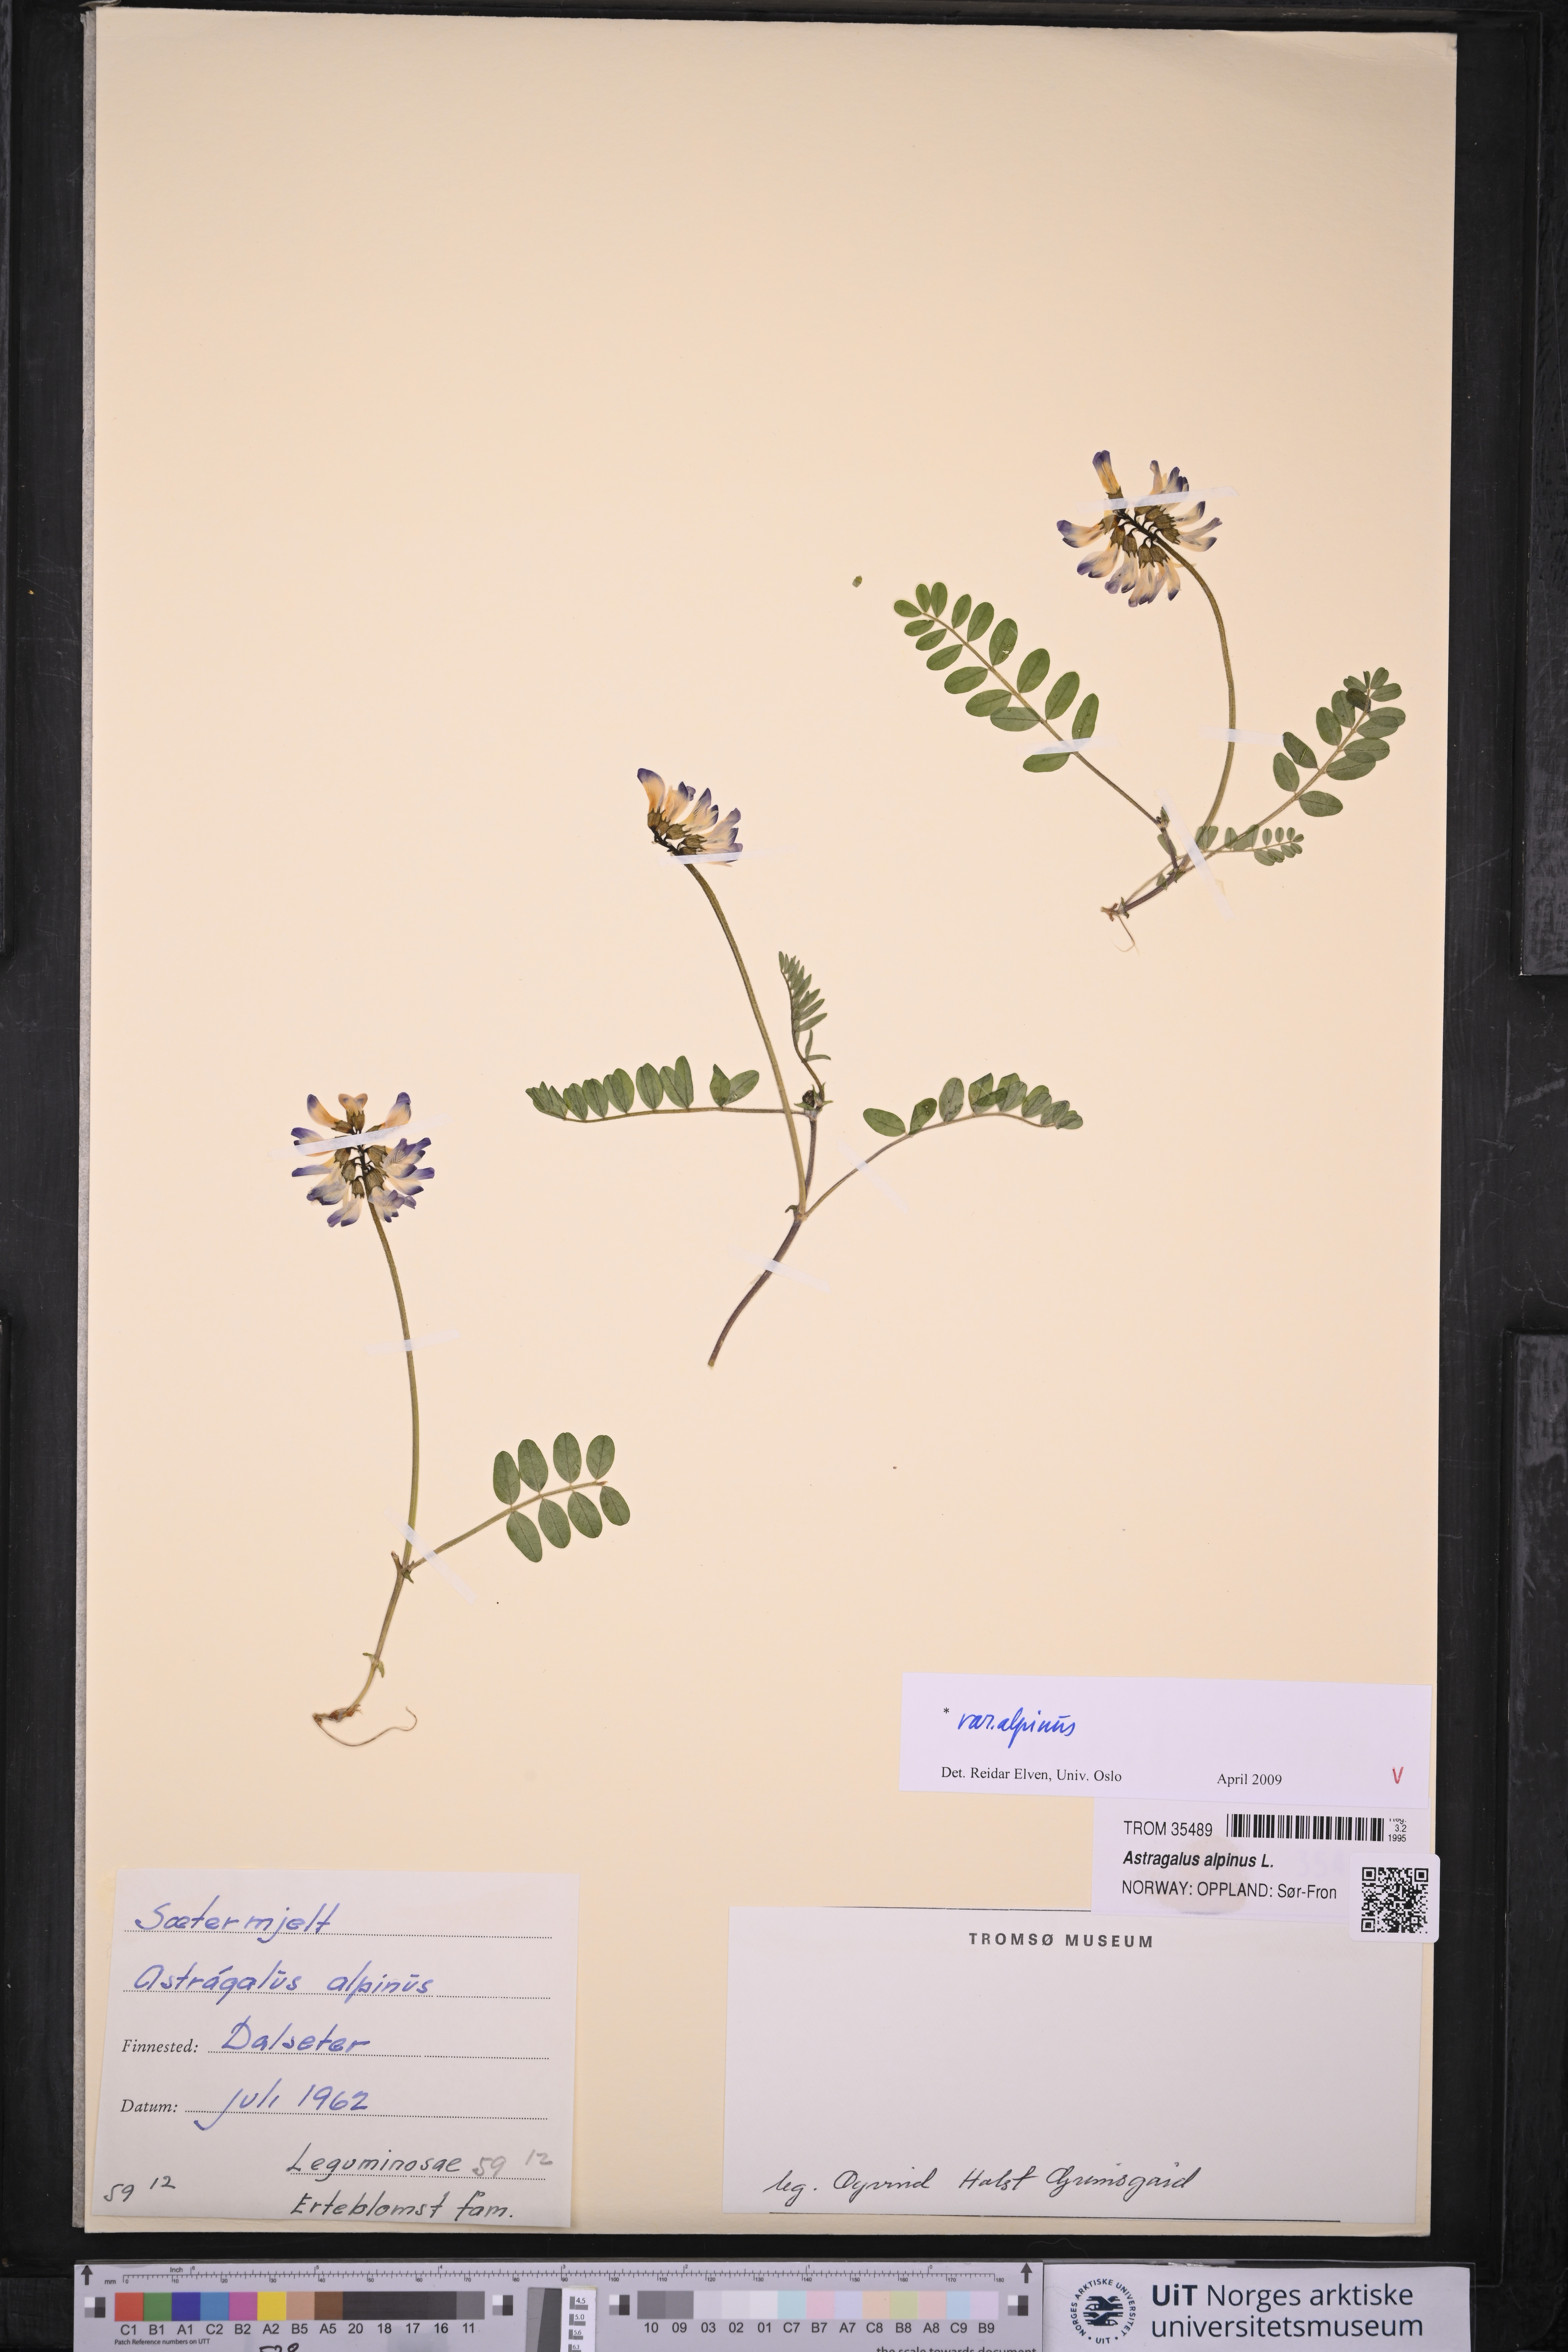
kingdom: Plantae
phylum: Tracheophyta
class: Magnoliopsida
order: Fabales
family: Fabaceae
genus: Astragalus
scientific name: Astragalus alpinus
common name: Alpine milk-vetch
